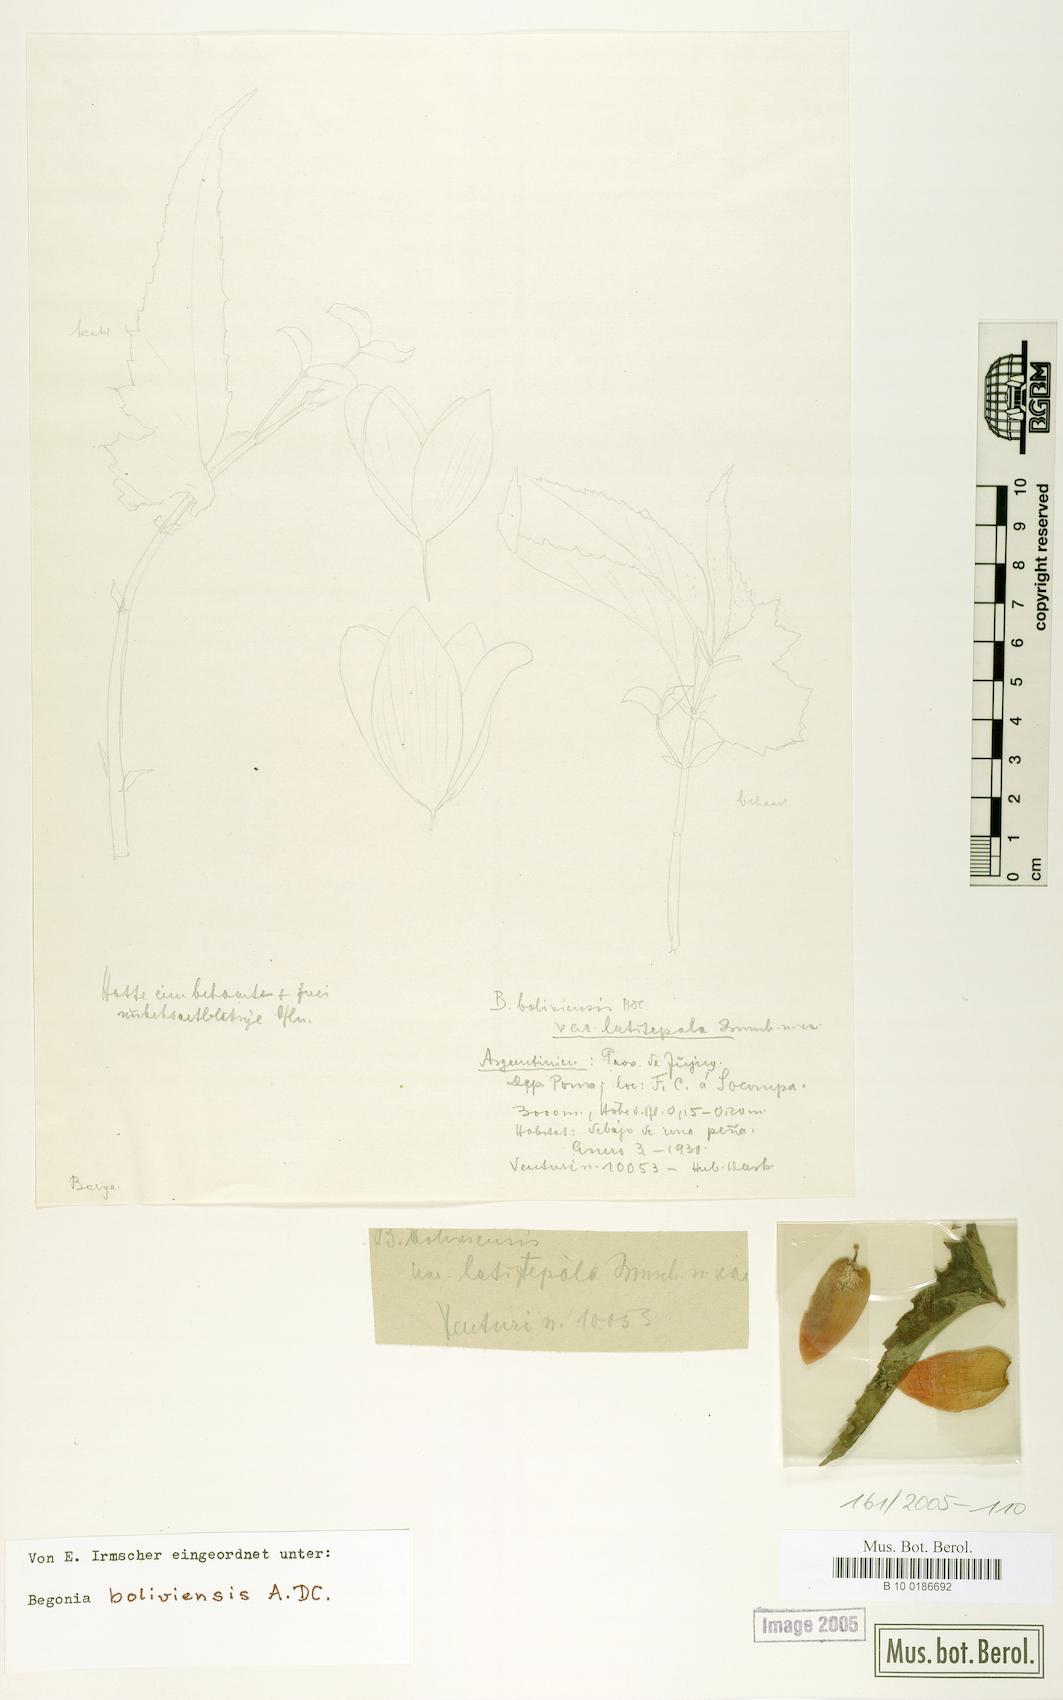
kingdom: Plantae
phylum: Tracheophyta
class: Magnoliopsida
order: Cucurbitales
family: Begoniaceae
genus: Begonia
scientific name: Begonia boliviensis
